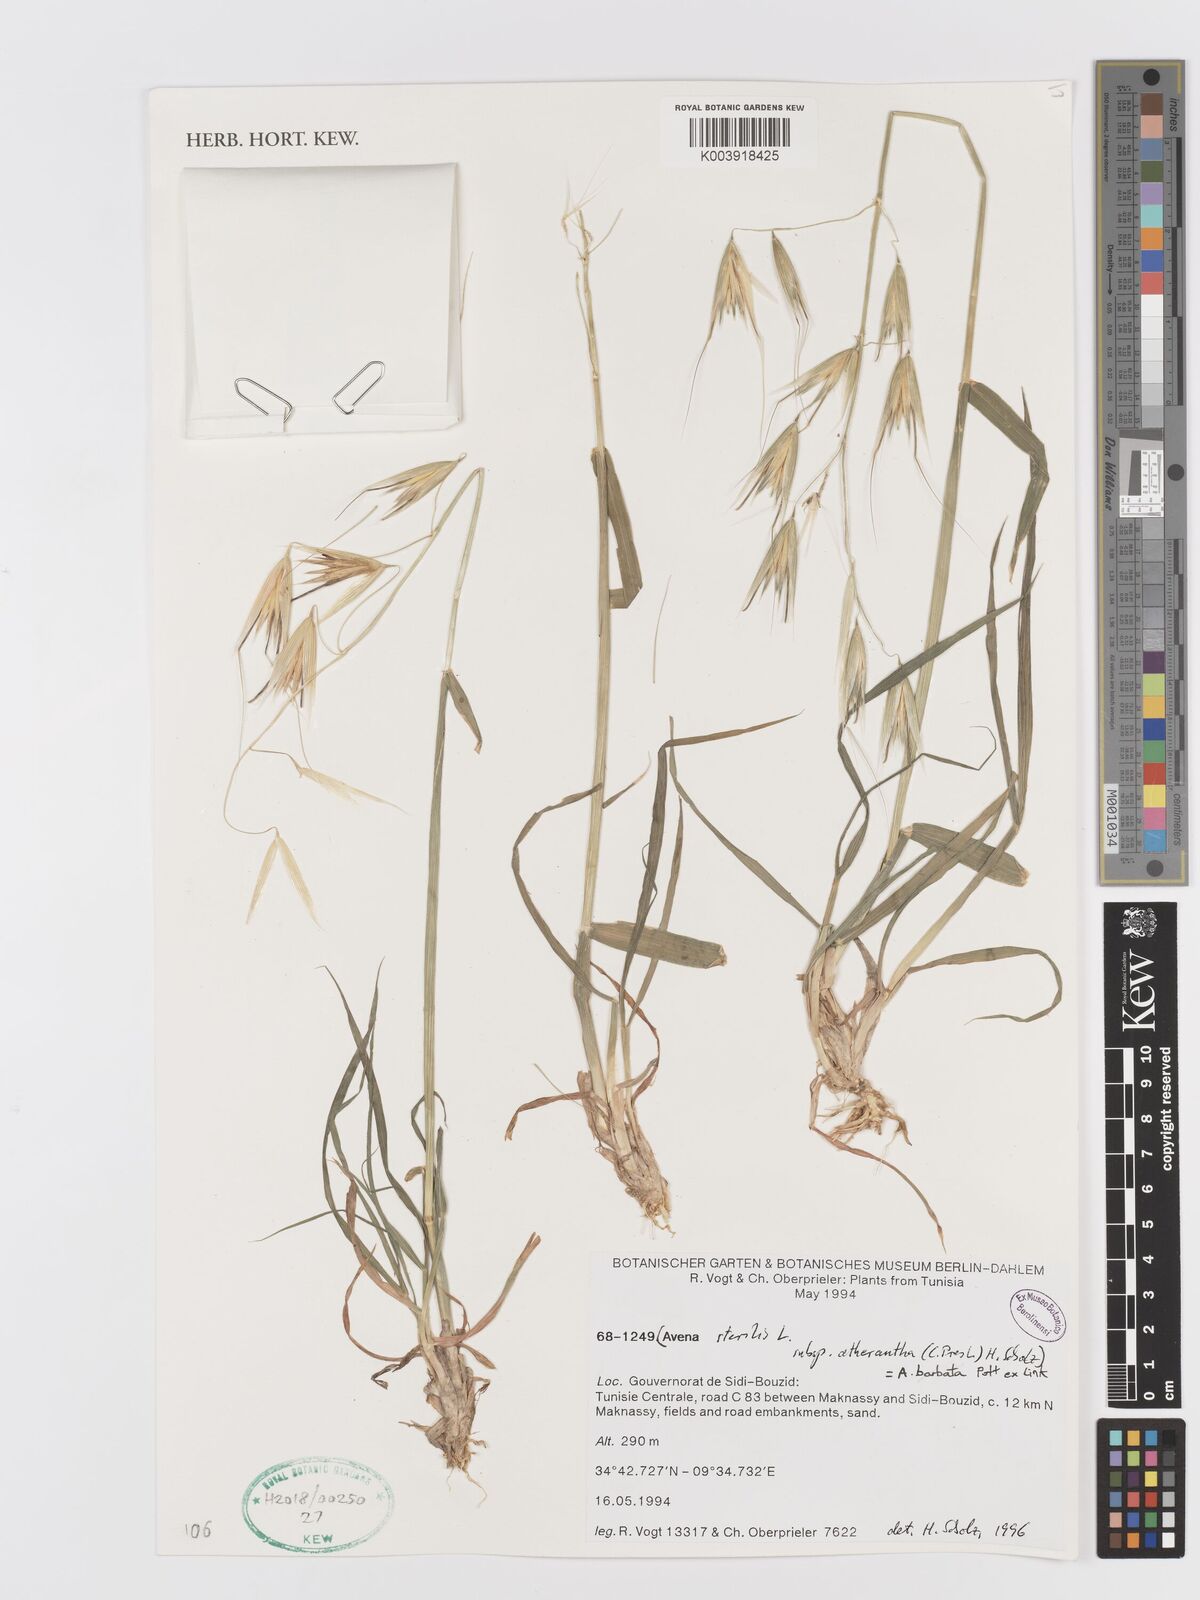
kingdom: Plantae
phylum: Tracheophyta
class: Liliopsida
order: Poales
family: Poaceae
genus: Avena
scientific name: Avena
